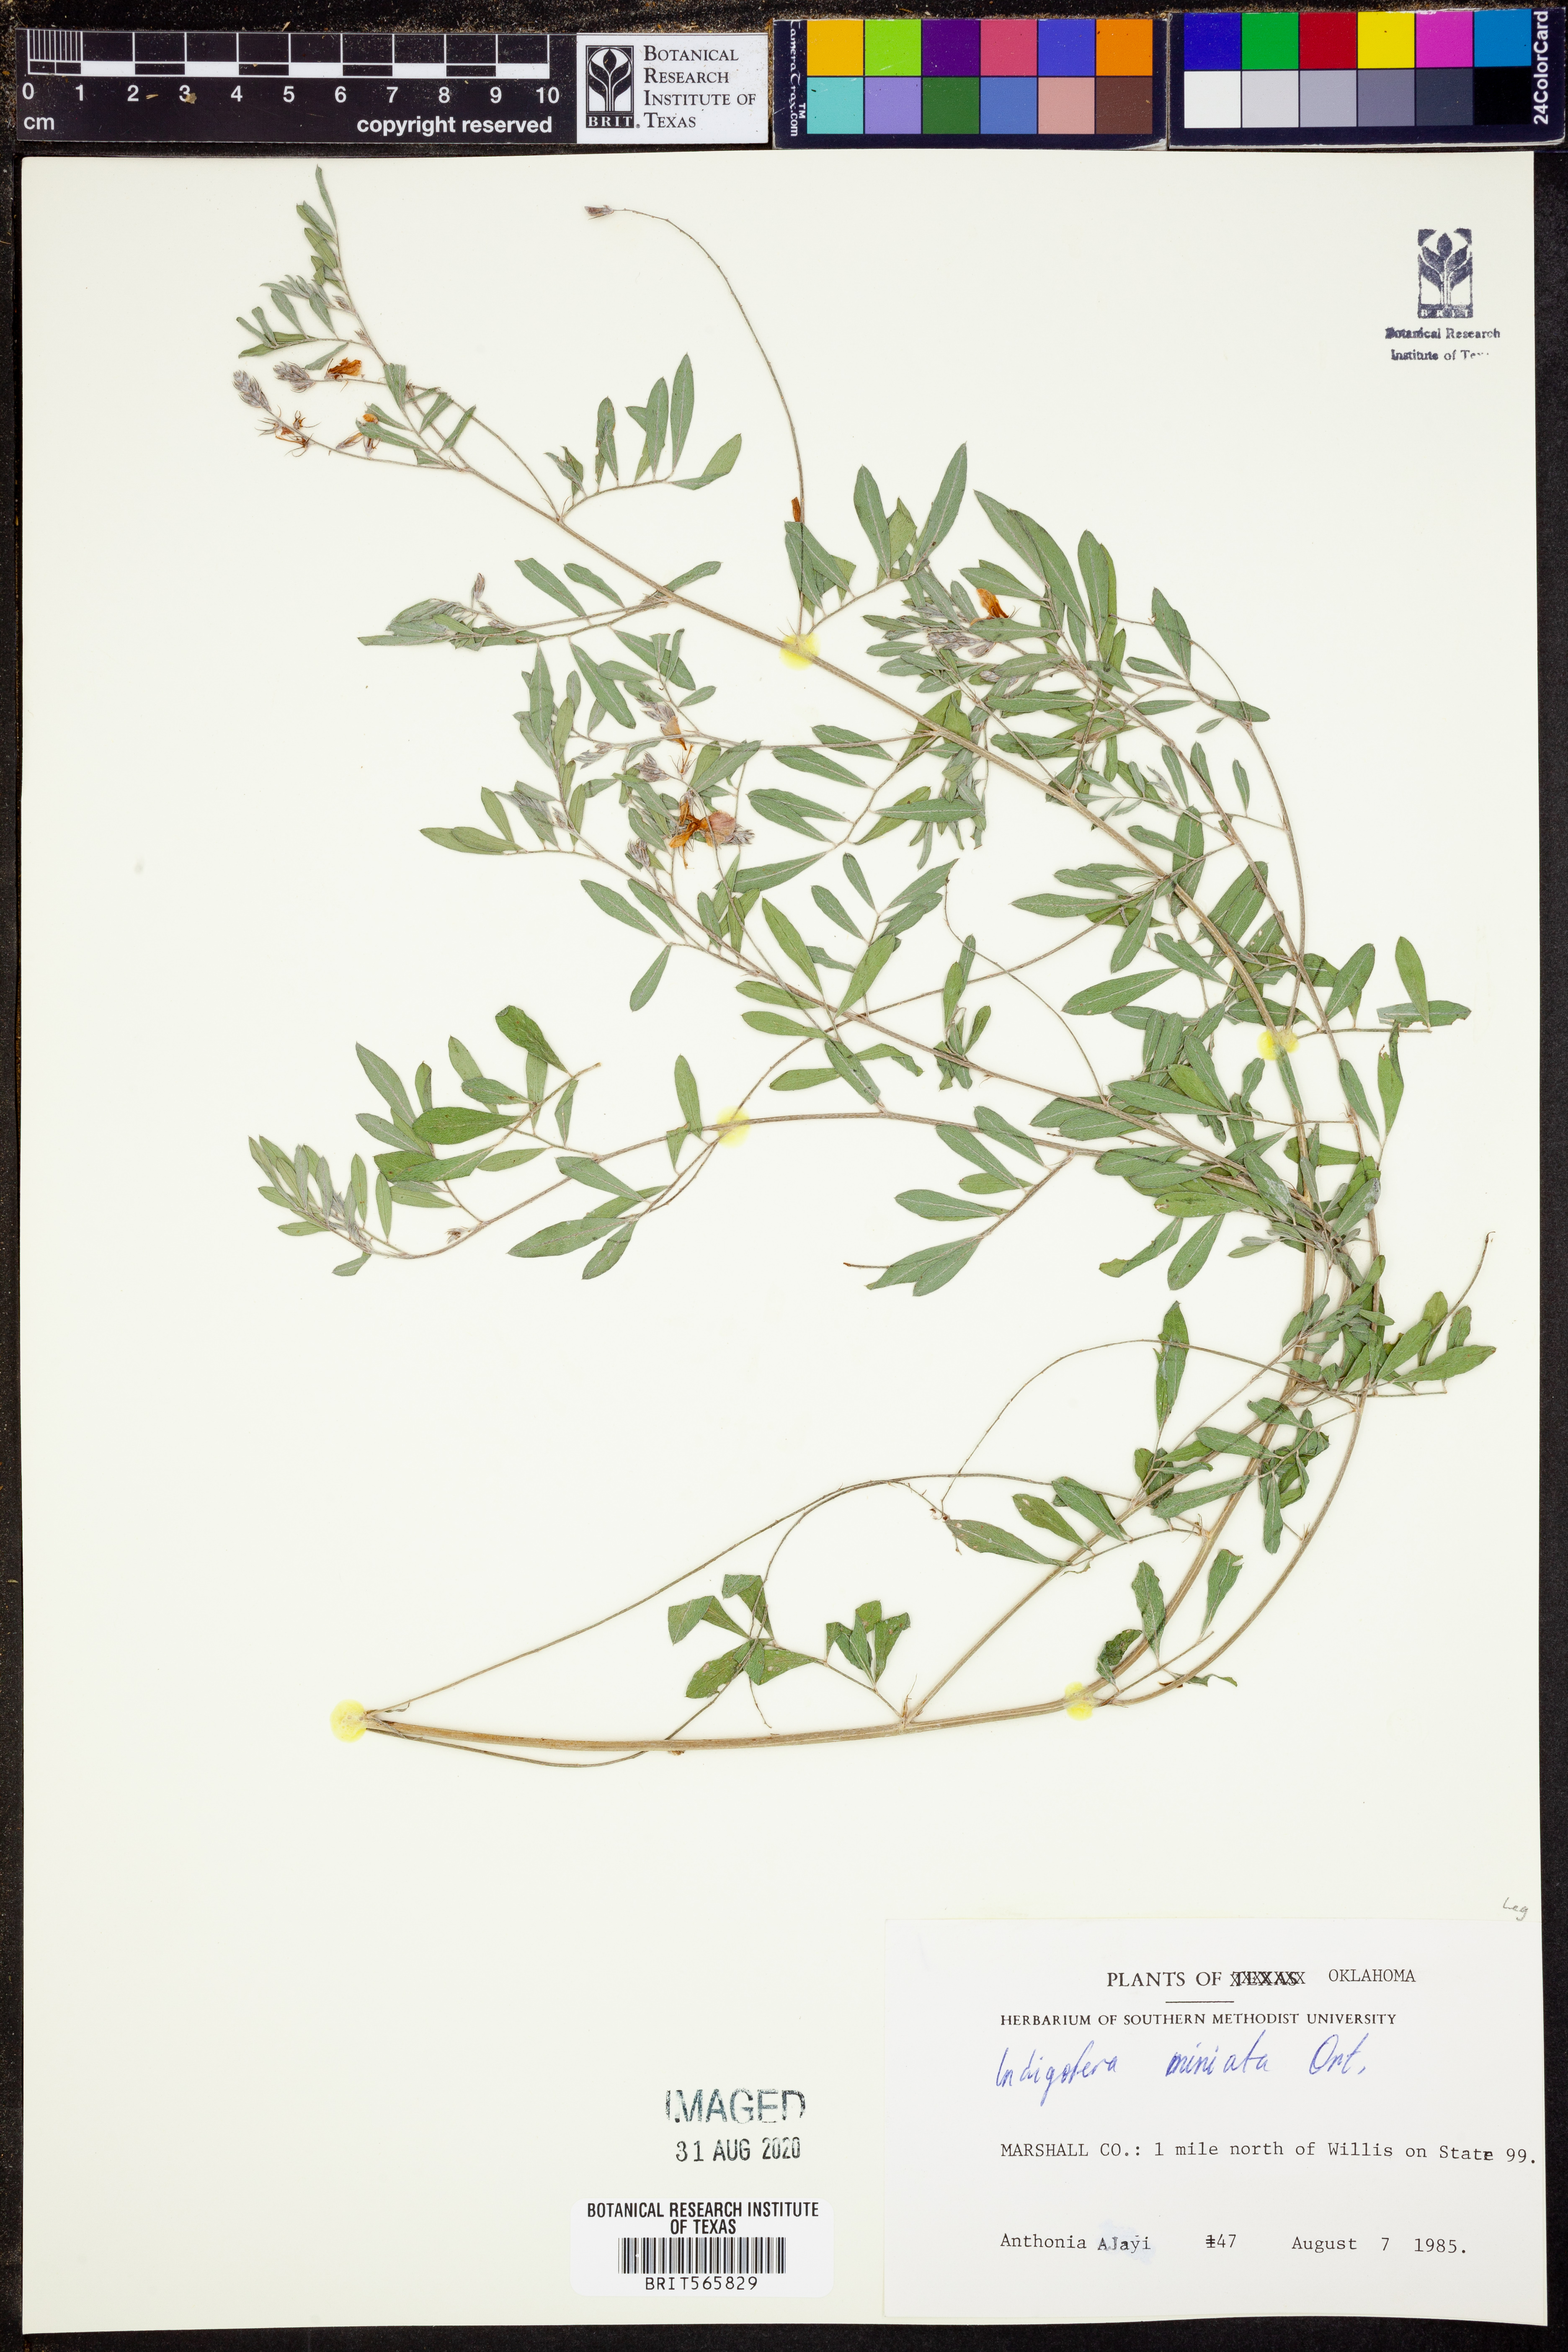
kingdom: Plantae
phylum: Tracheophyta
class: Magnoliopsida
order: Fabales
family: Fabaceae
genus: Indigofera
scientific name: Indigofera miniata
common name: Coast indigo
